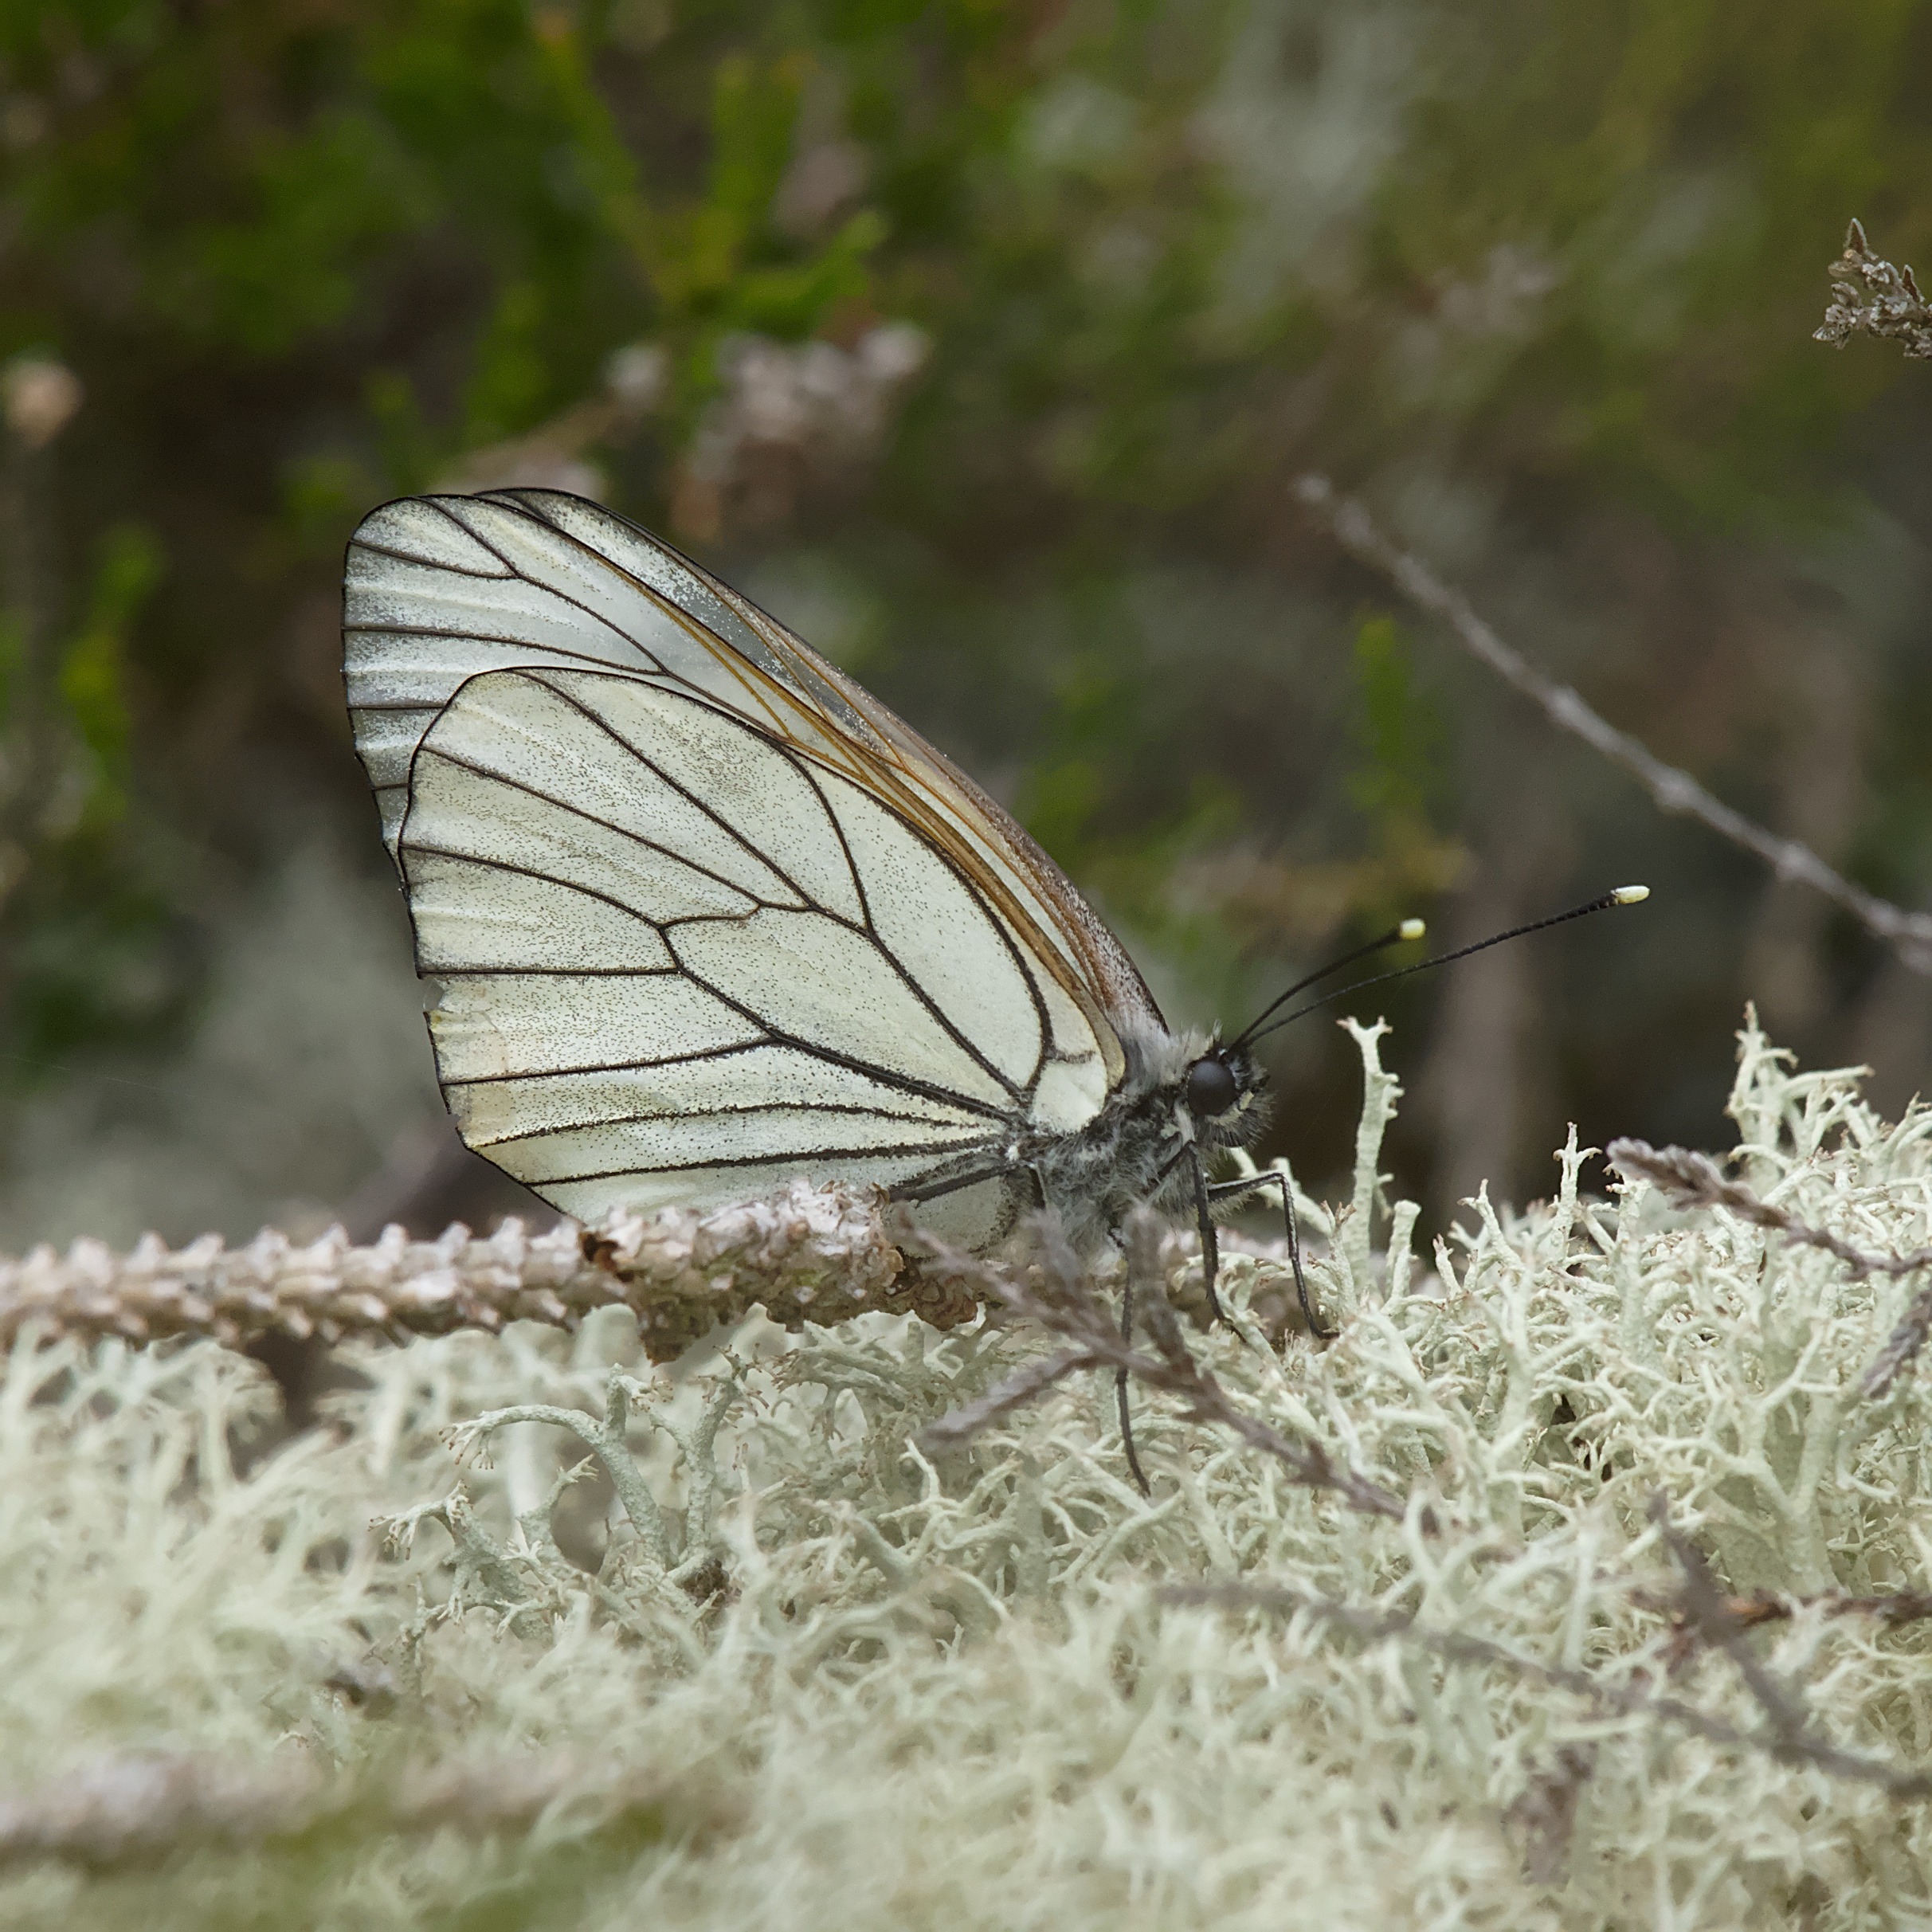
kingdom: Animalia
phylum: Arthropoda
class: Insecta
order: Lepidoptera
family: Pieridae
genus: Aporia
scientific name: Aporia crataegi
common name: Sortåret hvidvinge
